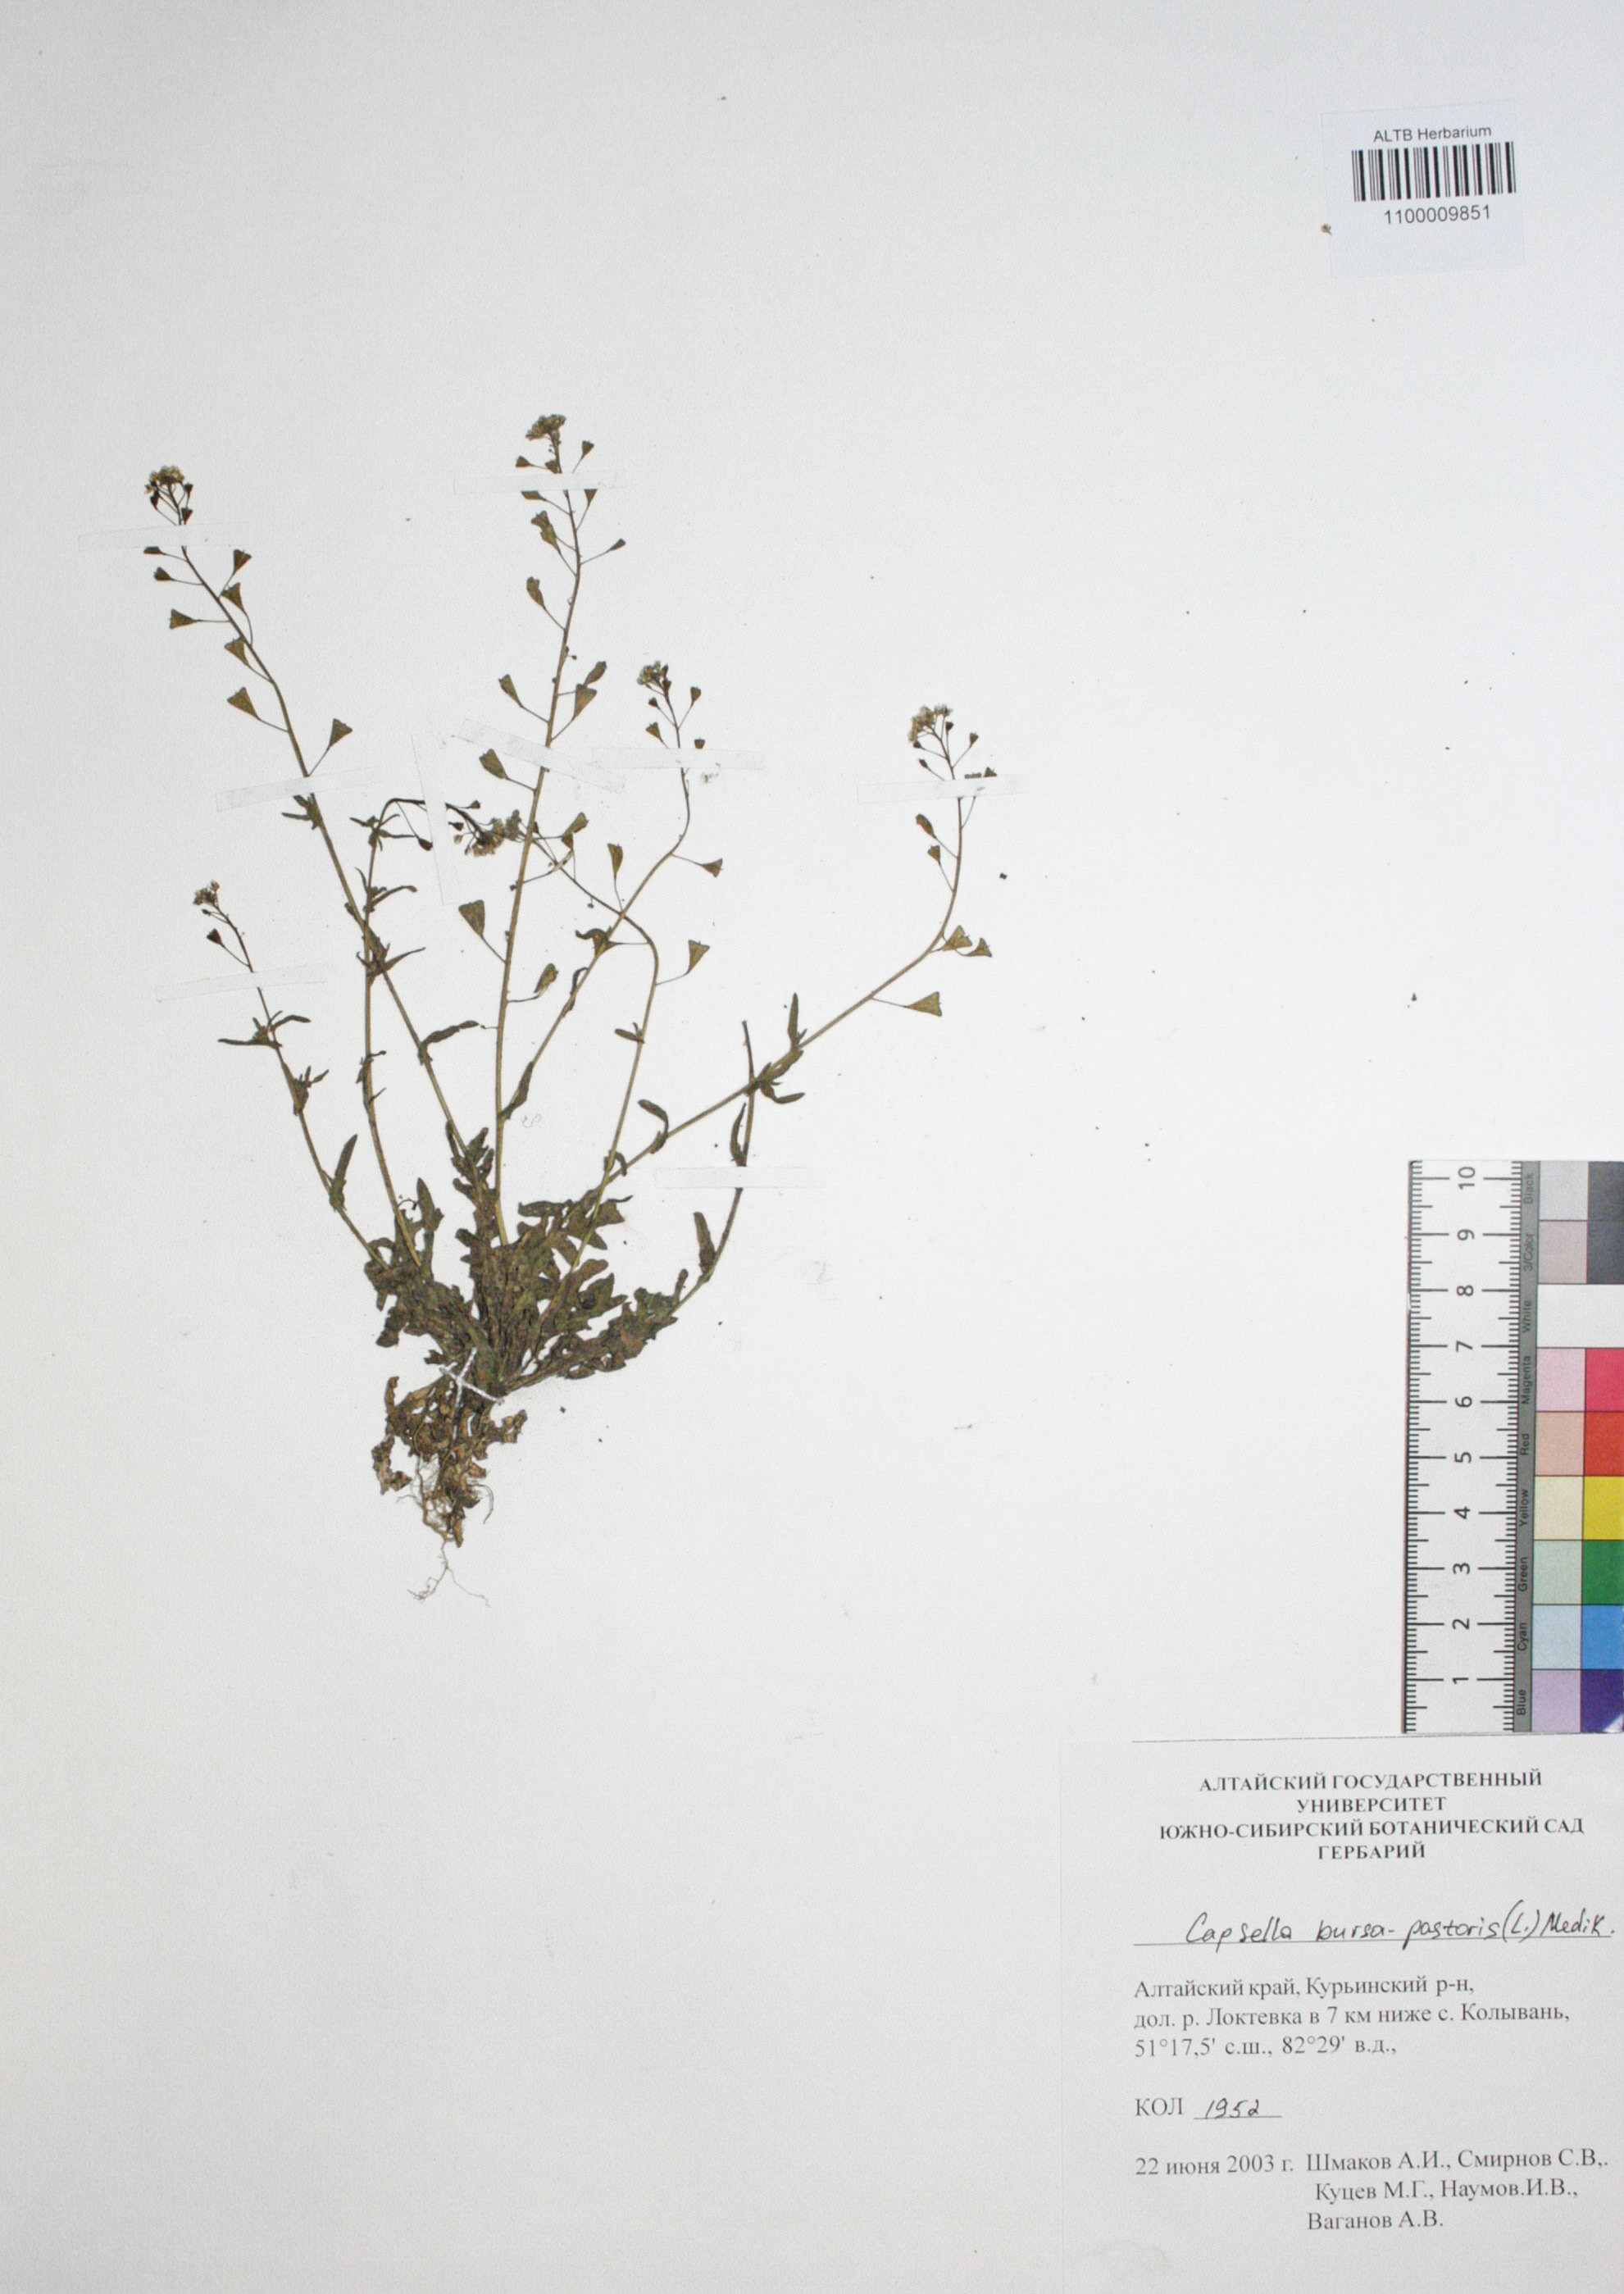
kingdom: Plantae
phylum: Tracheophyta
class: Magnoliopsida
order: Brassicales
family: Brassicaceae
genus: Capsella
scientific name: Capsella bursa-pastoris
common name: Shepherd's purse
